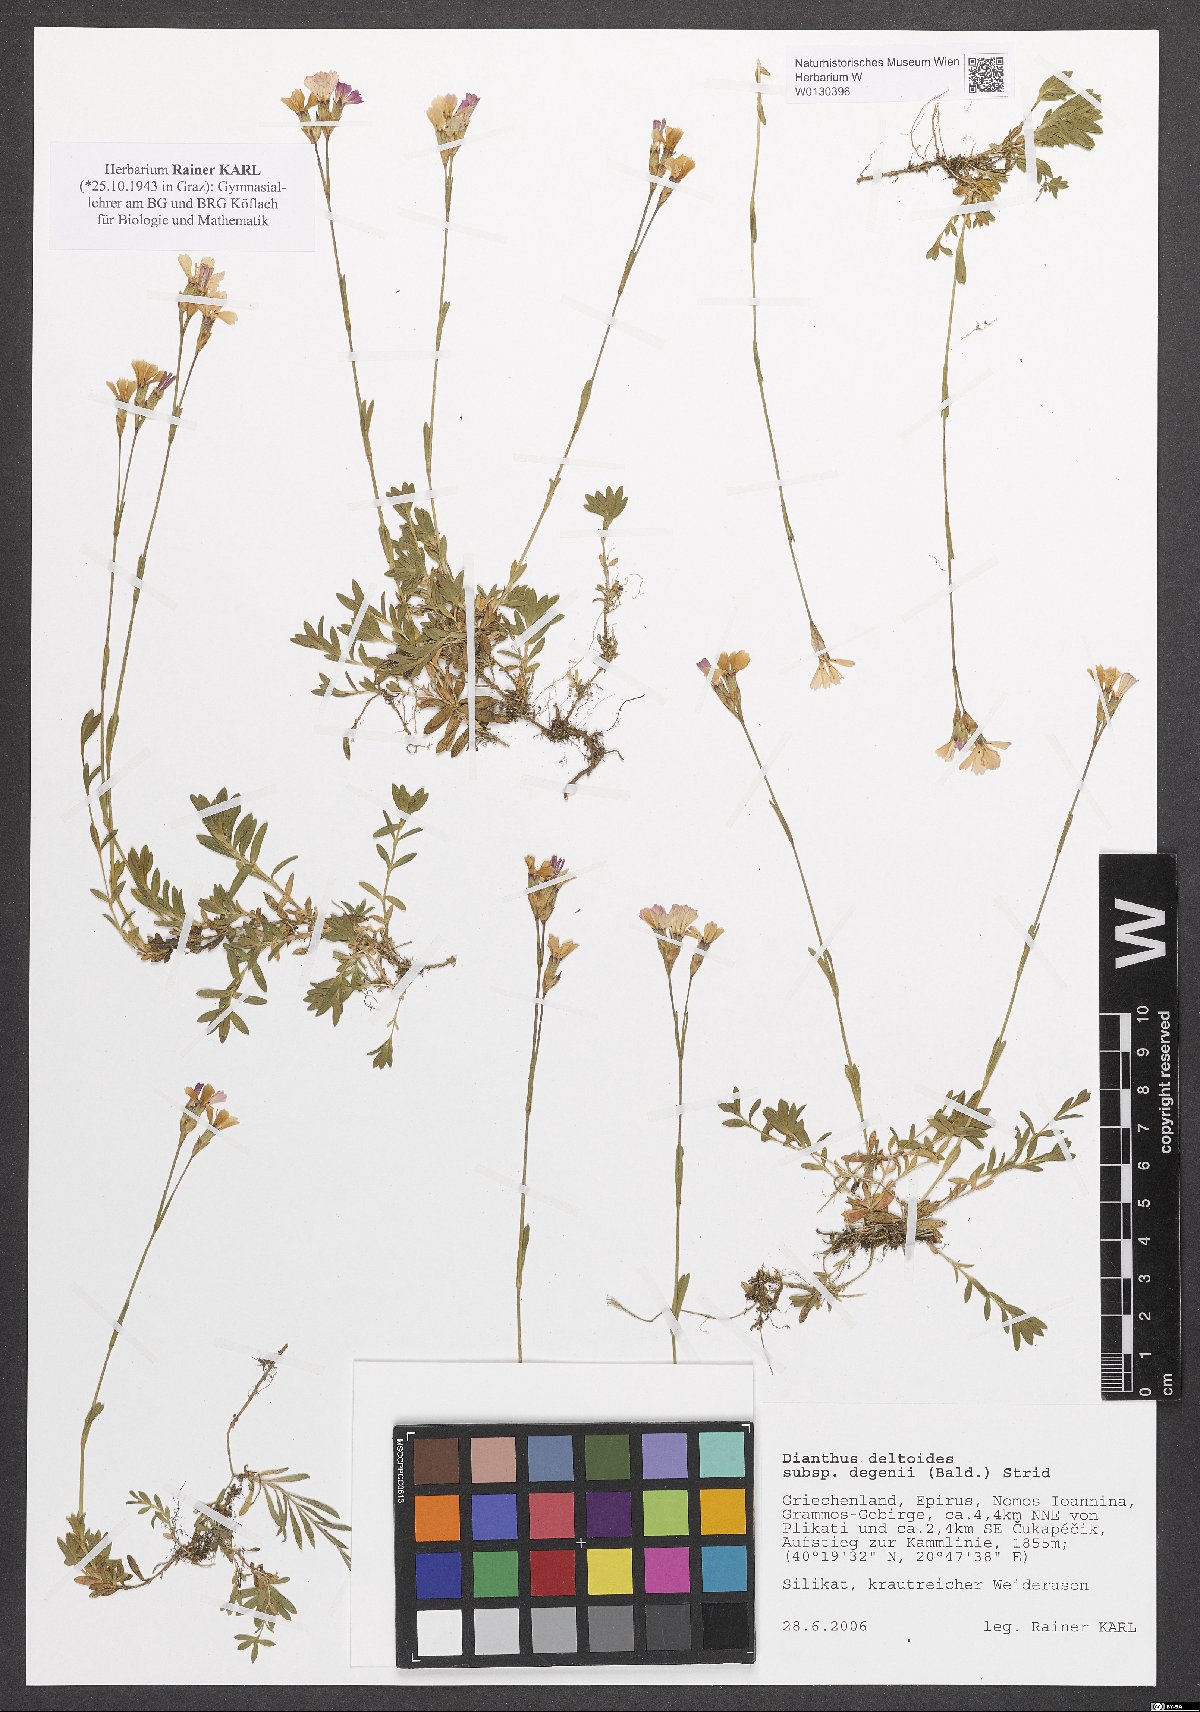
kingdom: Plantae
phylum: Tracheophyta
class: Magnoliopsida
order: Caryophyllales
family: Caryophyllaceae
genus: Dianthus
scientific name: Dianthus deltoides
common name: Maiden pink
